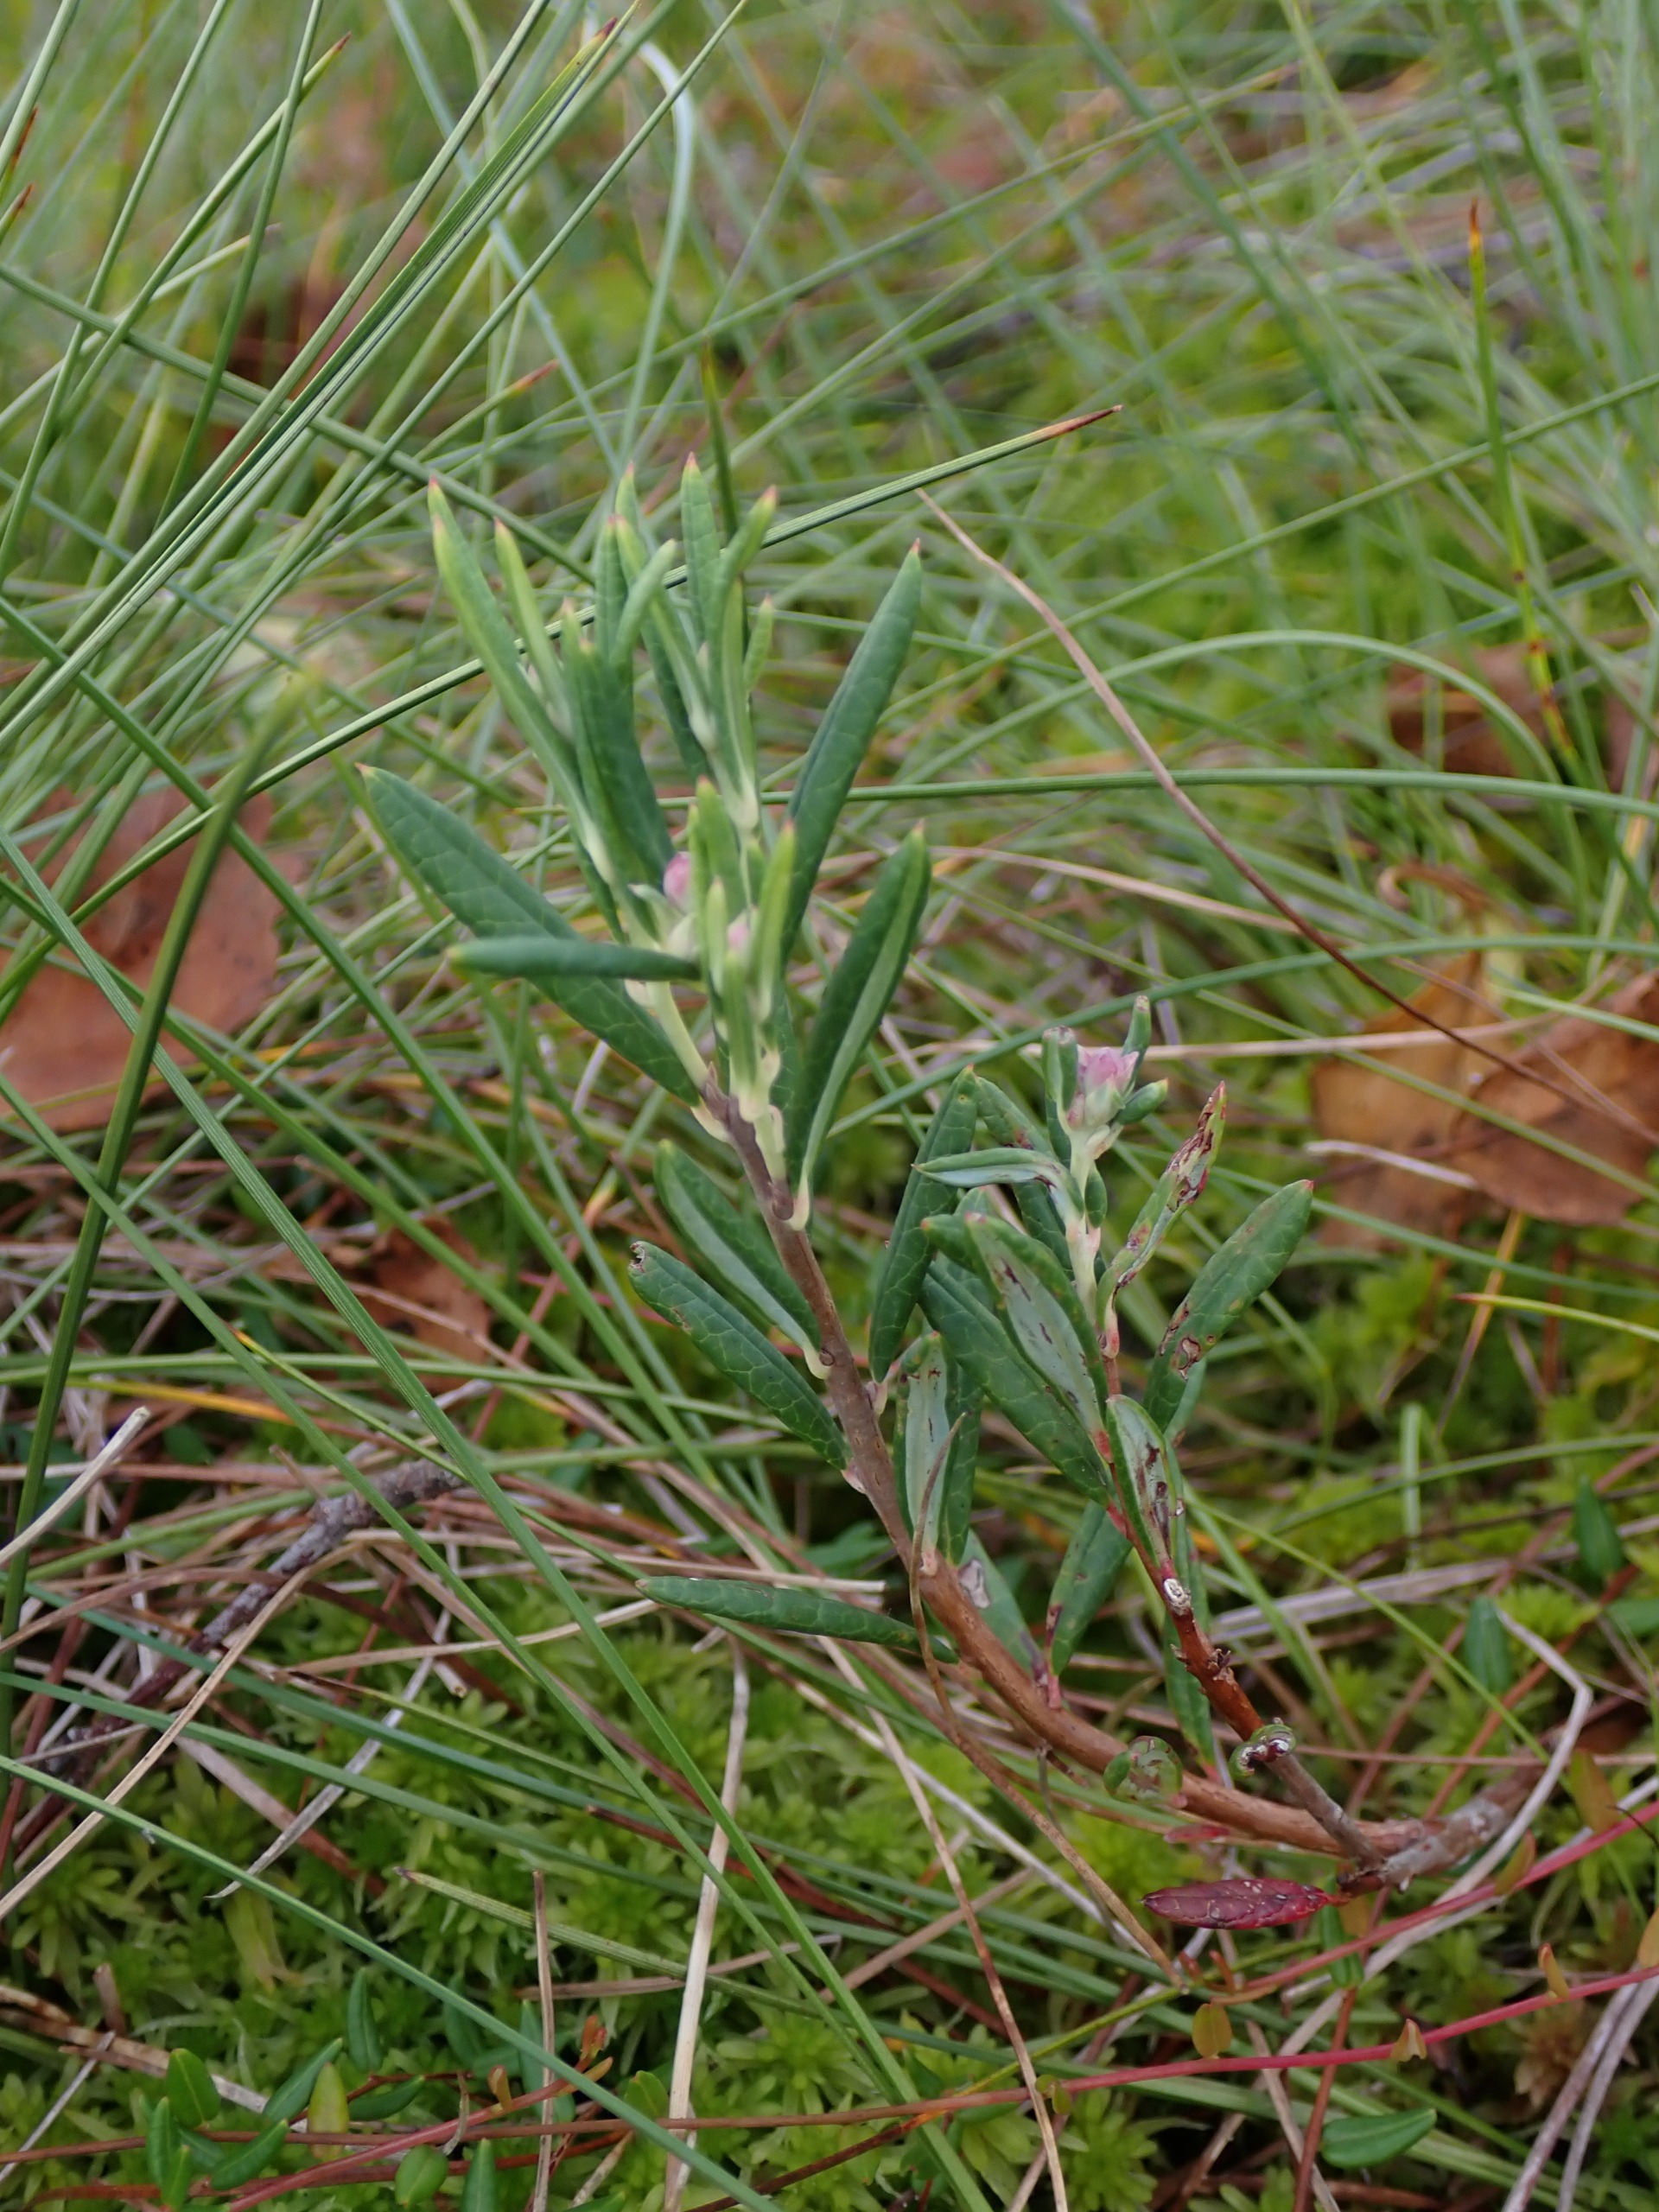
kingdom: Plantae
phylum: Tracheophyta
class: Magnoliopsida
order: Ericales
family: Ericaceae
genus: Andromeda
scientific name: Andromeda polifolia
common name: Rosmarinlyng
